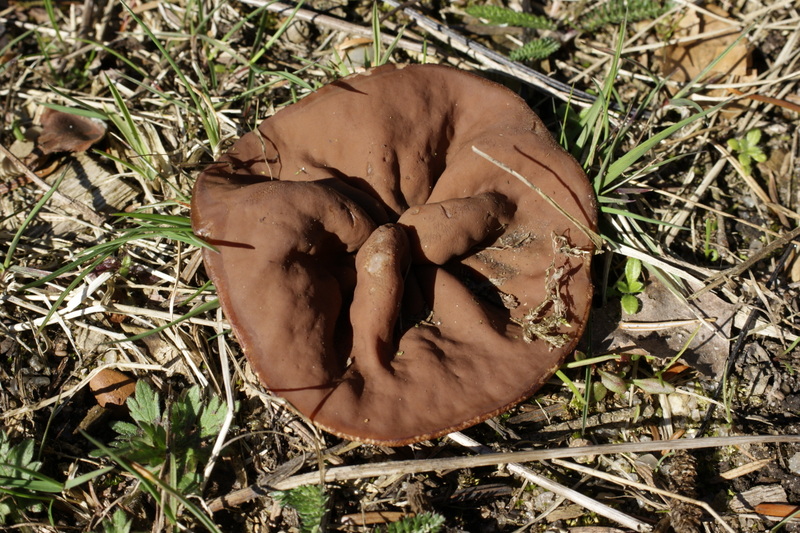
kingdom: Fungi
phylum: Ascomycota
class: Pezizomycetes
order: Pezizales
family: Discinaceae
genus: Discina
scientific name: Discina ancilis
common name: udbredt stenmorkel
